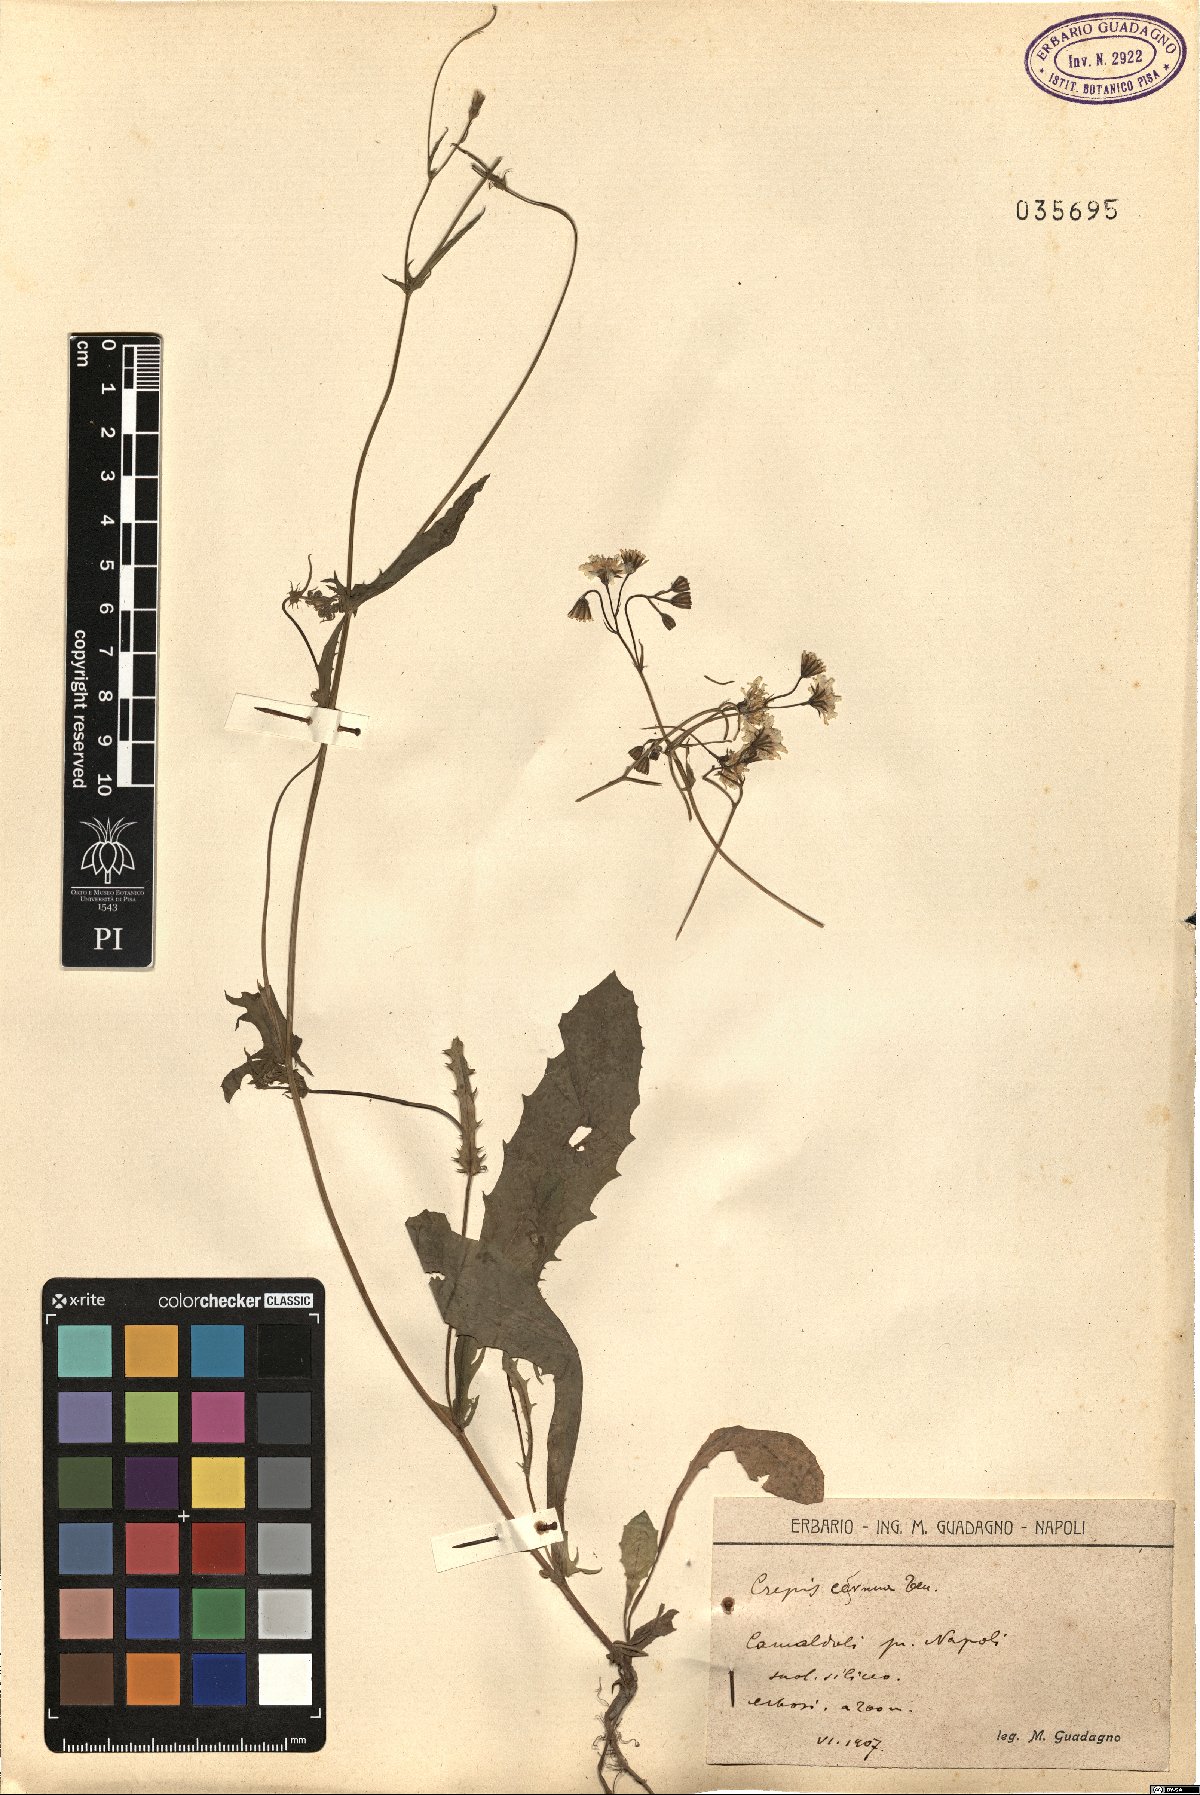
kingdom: Plantae
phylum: Tracheophyta
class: Magnoliopsida
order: Asterales
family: Asteraceae
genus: Crepis
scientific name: Crepis neglecta
